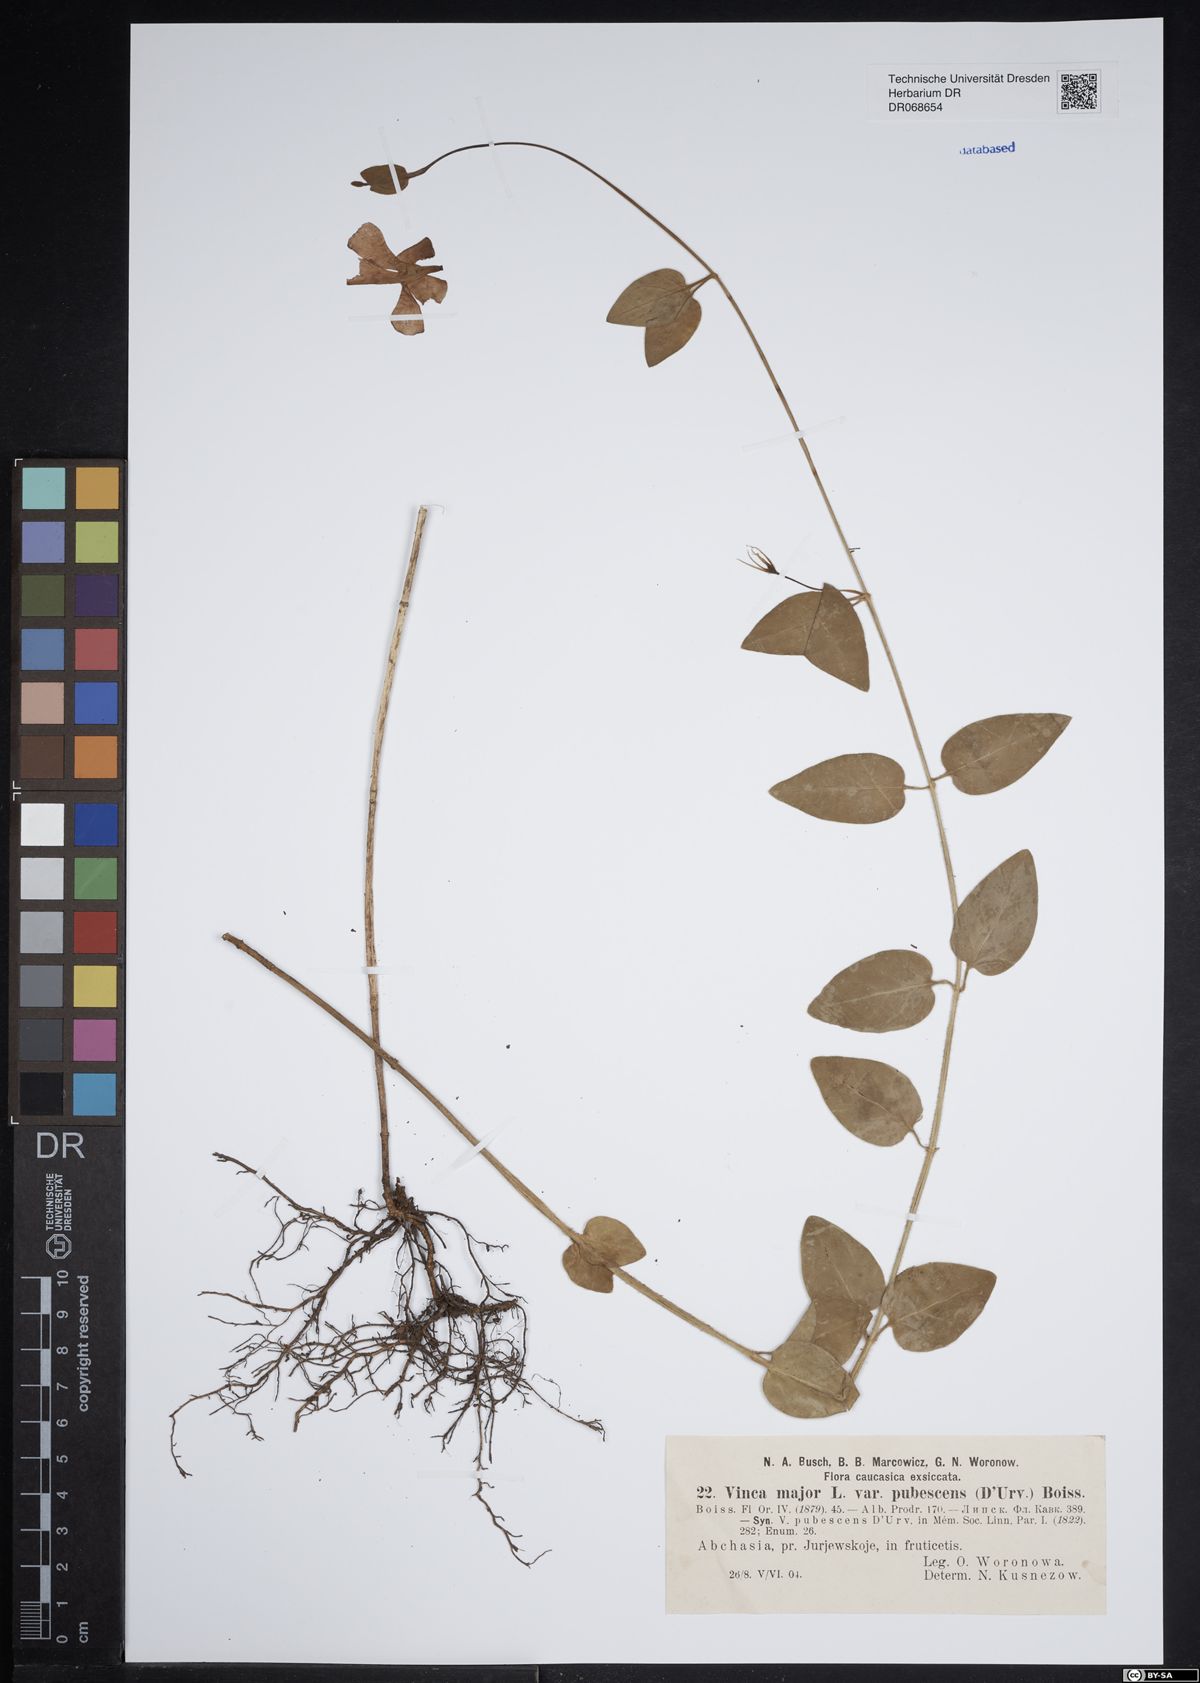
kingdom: Plantae
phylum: Tracheophyta
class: Magnoliopsida
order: Gentianales
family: Apocynaceae
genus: Vinca
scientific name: Vinca major
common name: Greater periwinkle
